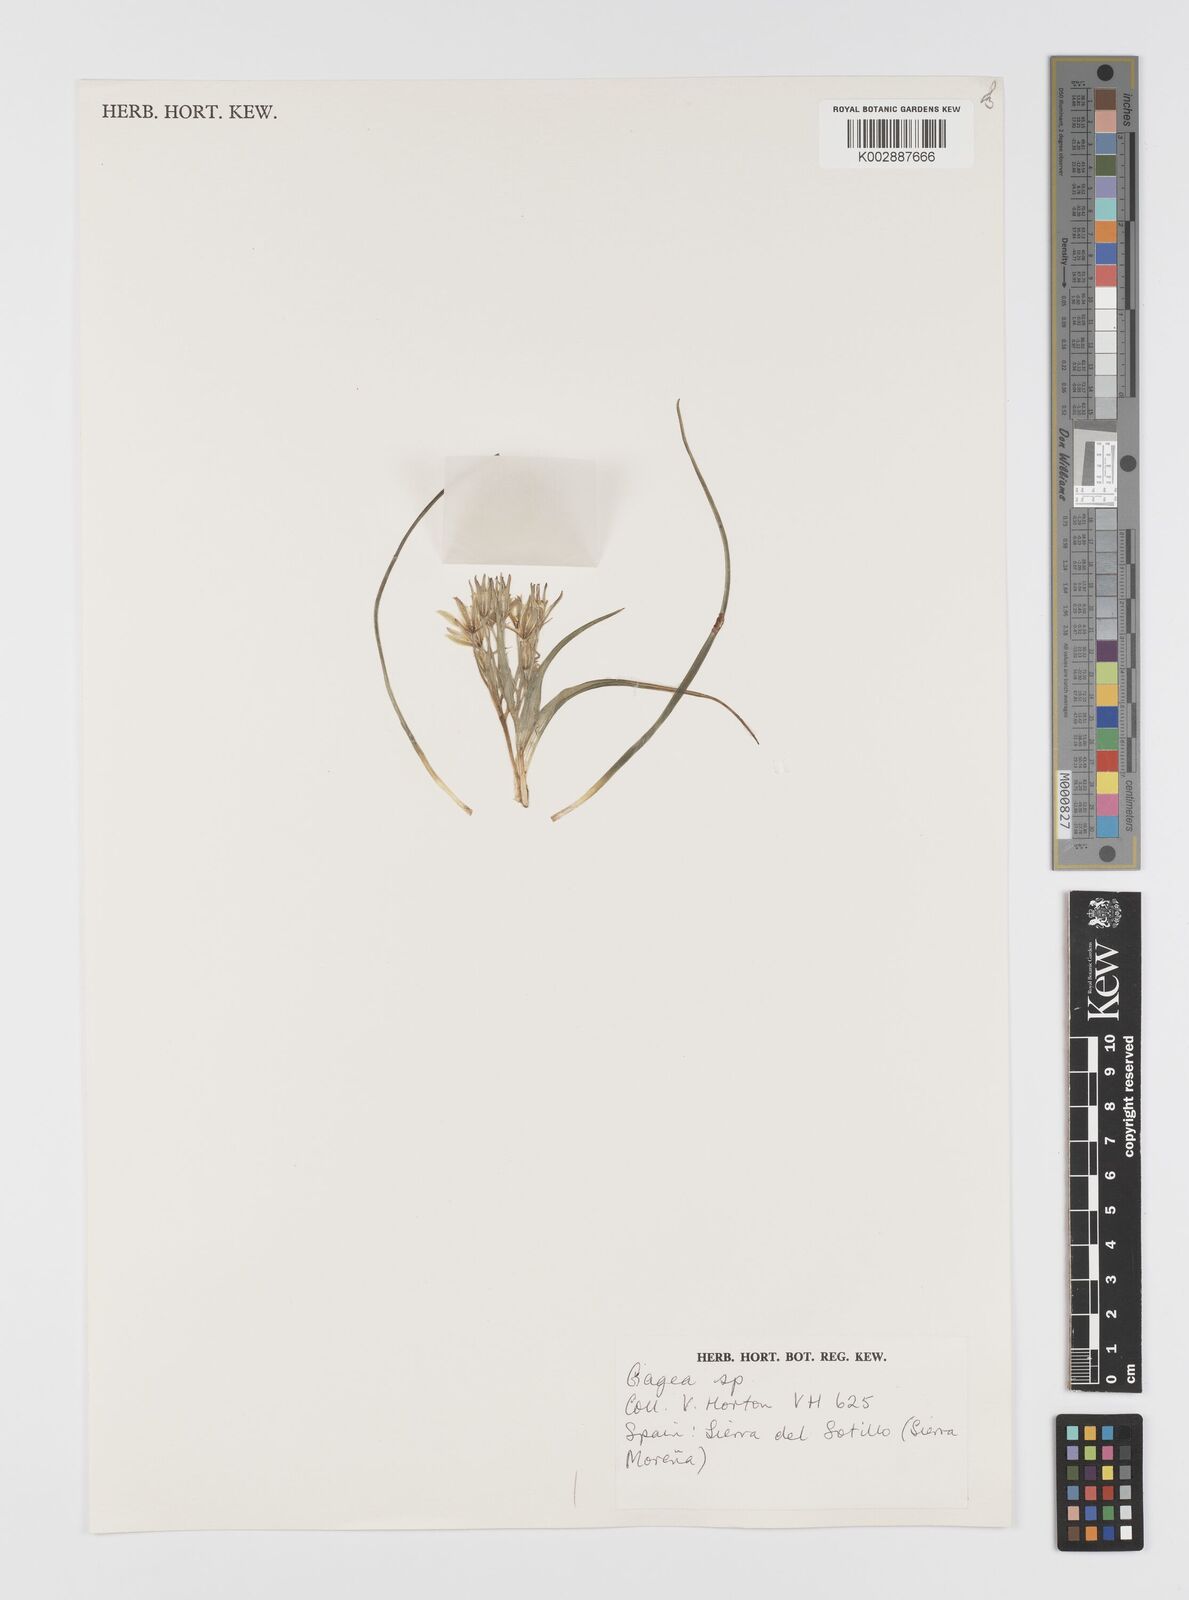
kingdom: Plantae
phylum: Tracheophyta
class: Liliopsida
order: Liliales
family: Liliaceae
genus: Gagea
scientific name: Gagea
